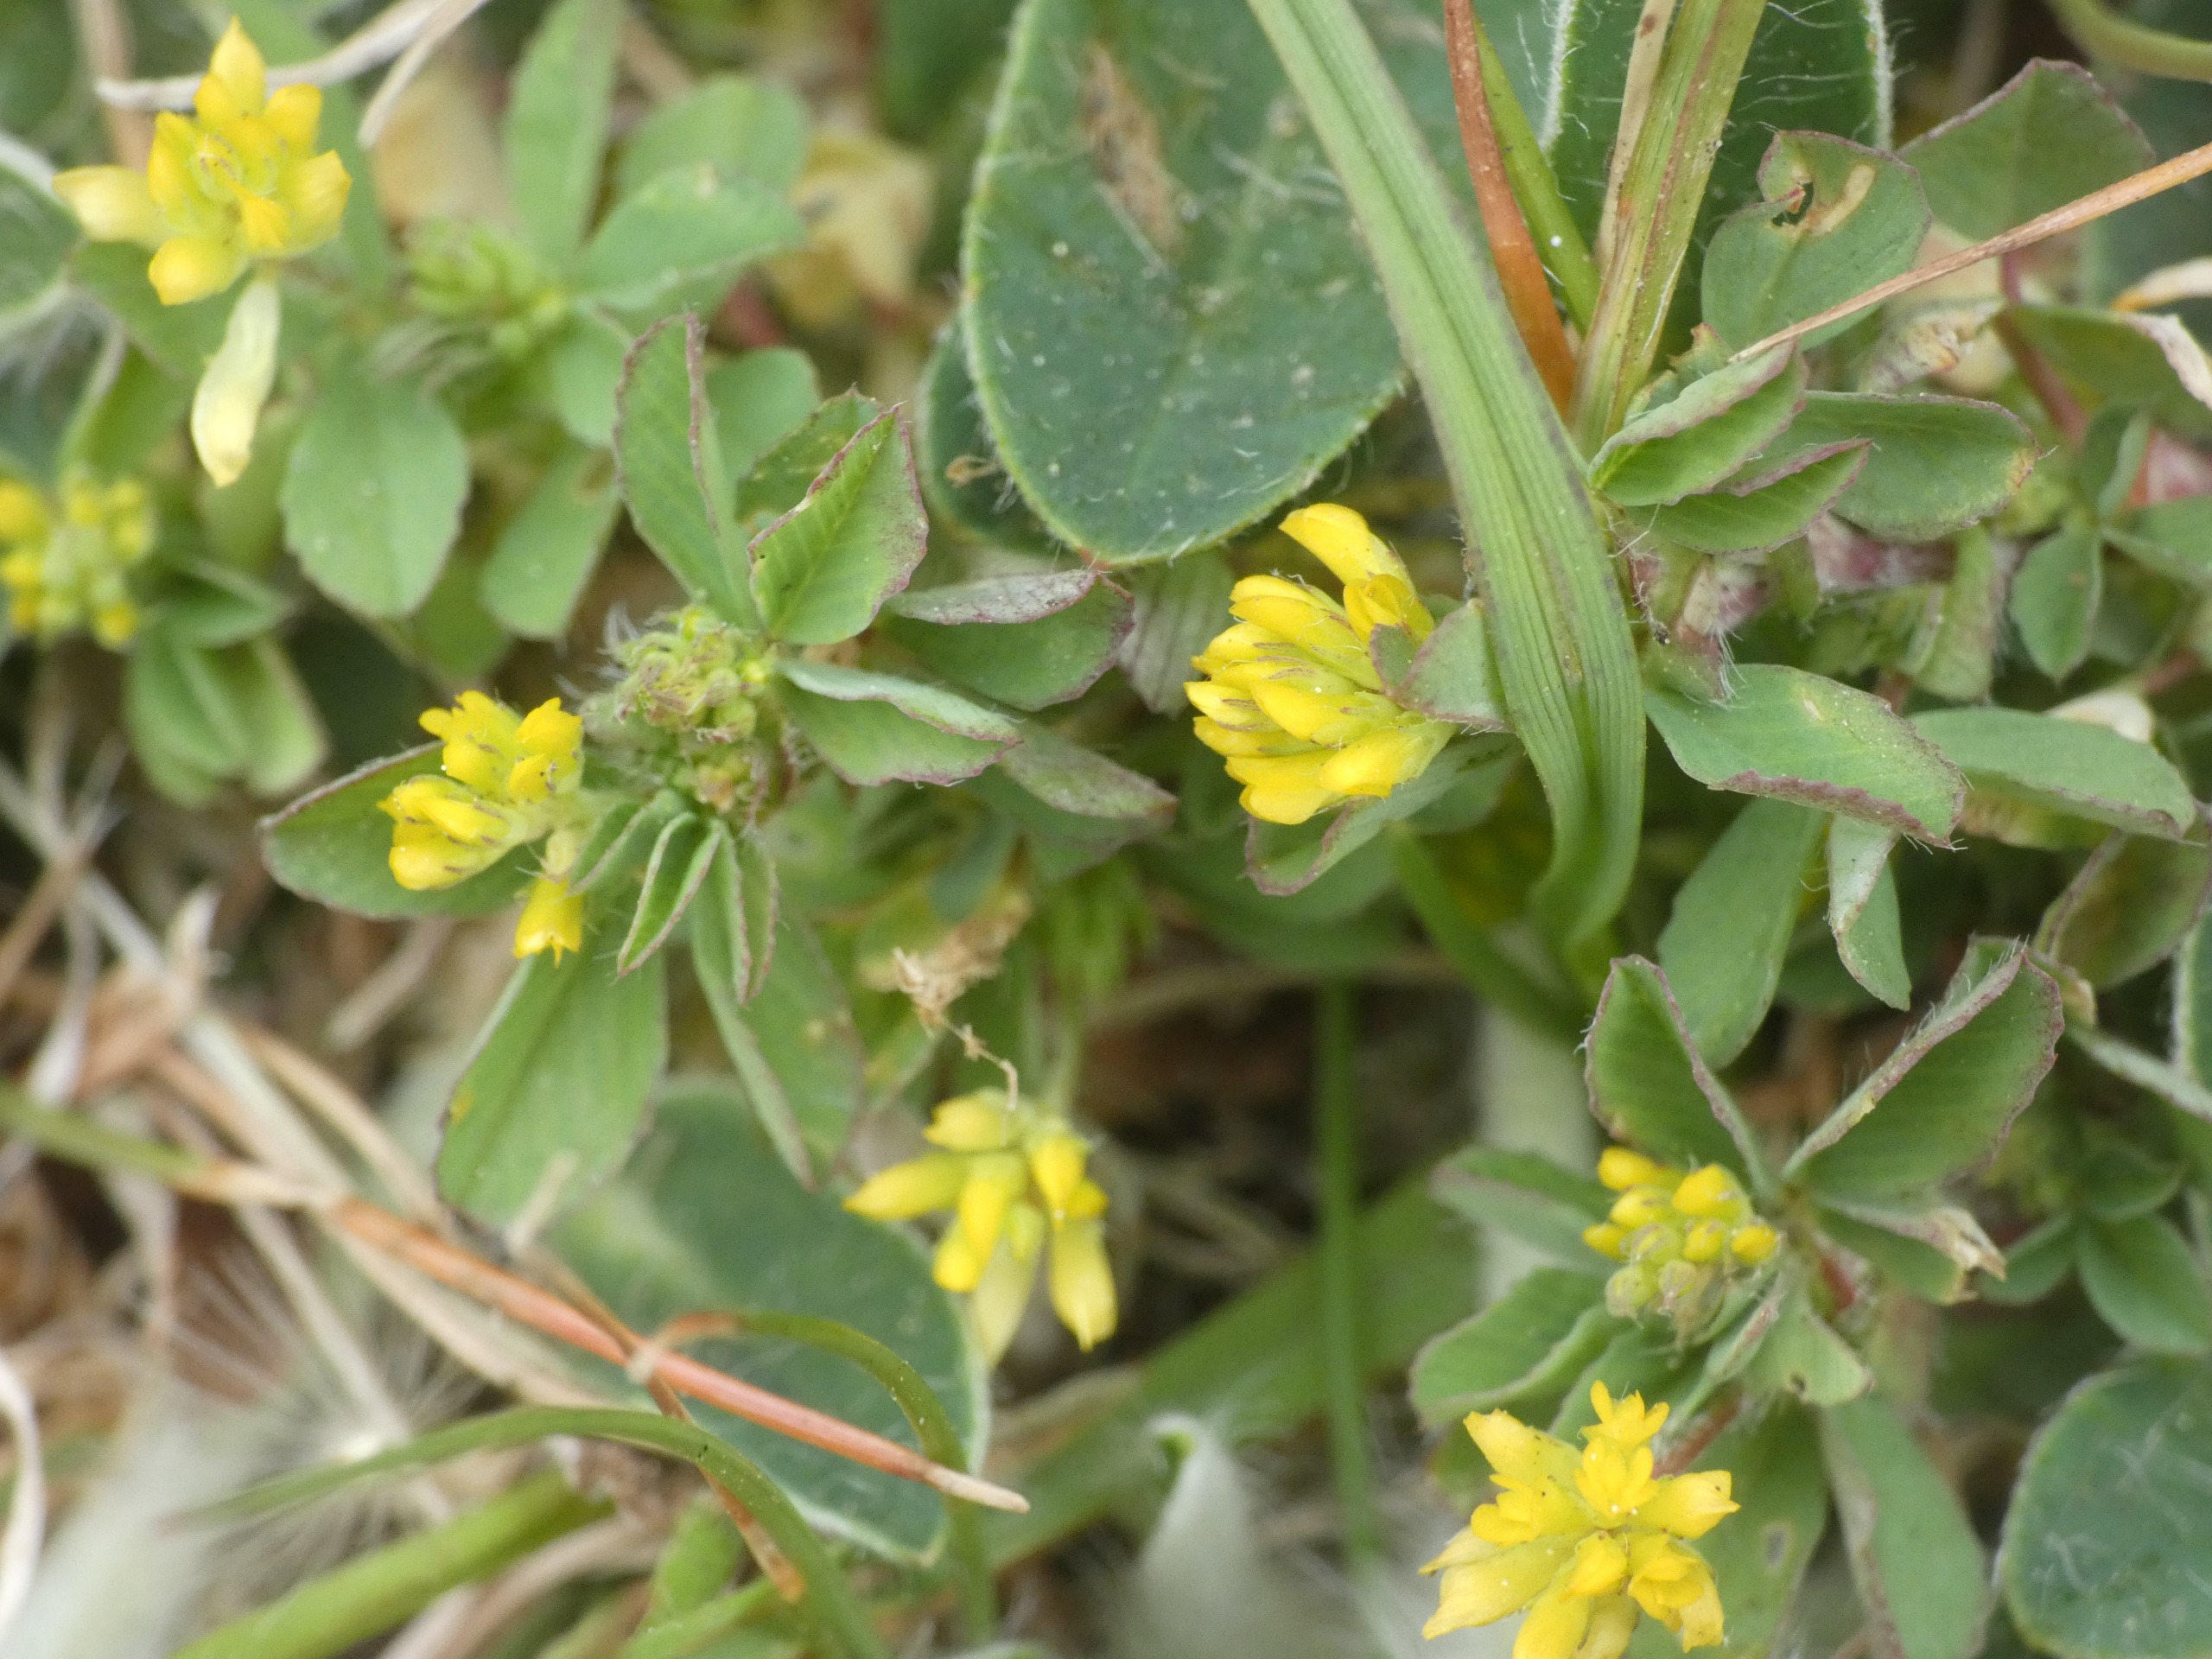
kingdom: Plantae
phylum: Tracheophyta
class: Magnoliopsida
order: Fabales
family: Fabaceae
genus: Medicago
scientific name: Medicago lupulina
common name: Humle-sneglebælg
